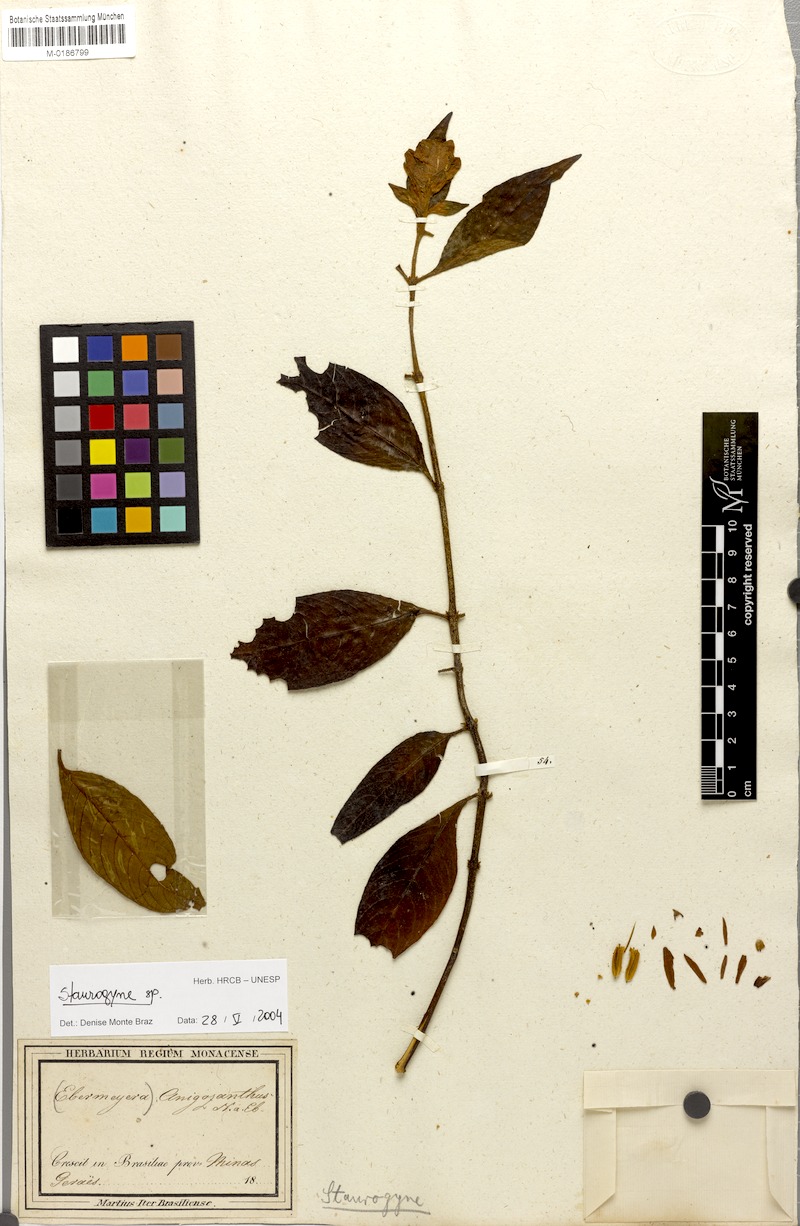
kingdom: Plantae
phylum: Tracheophyta
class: Magnoliopsida
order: Lamiales
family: Acanthaceae
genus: Staurogyne
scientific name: Staurogyne anigozanthus
